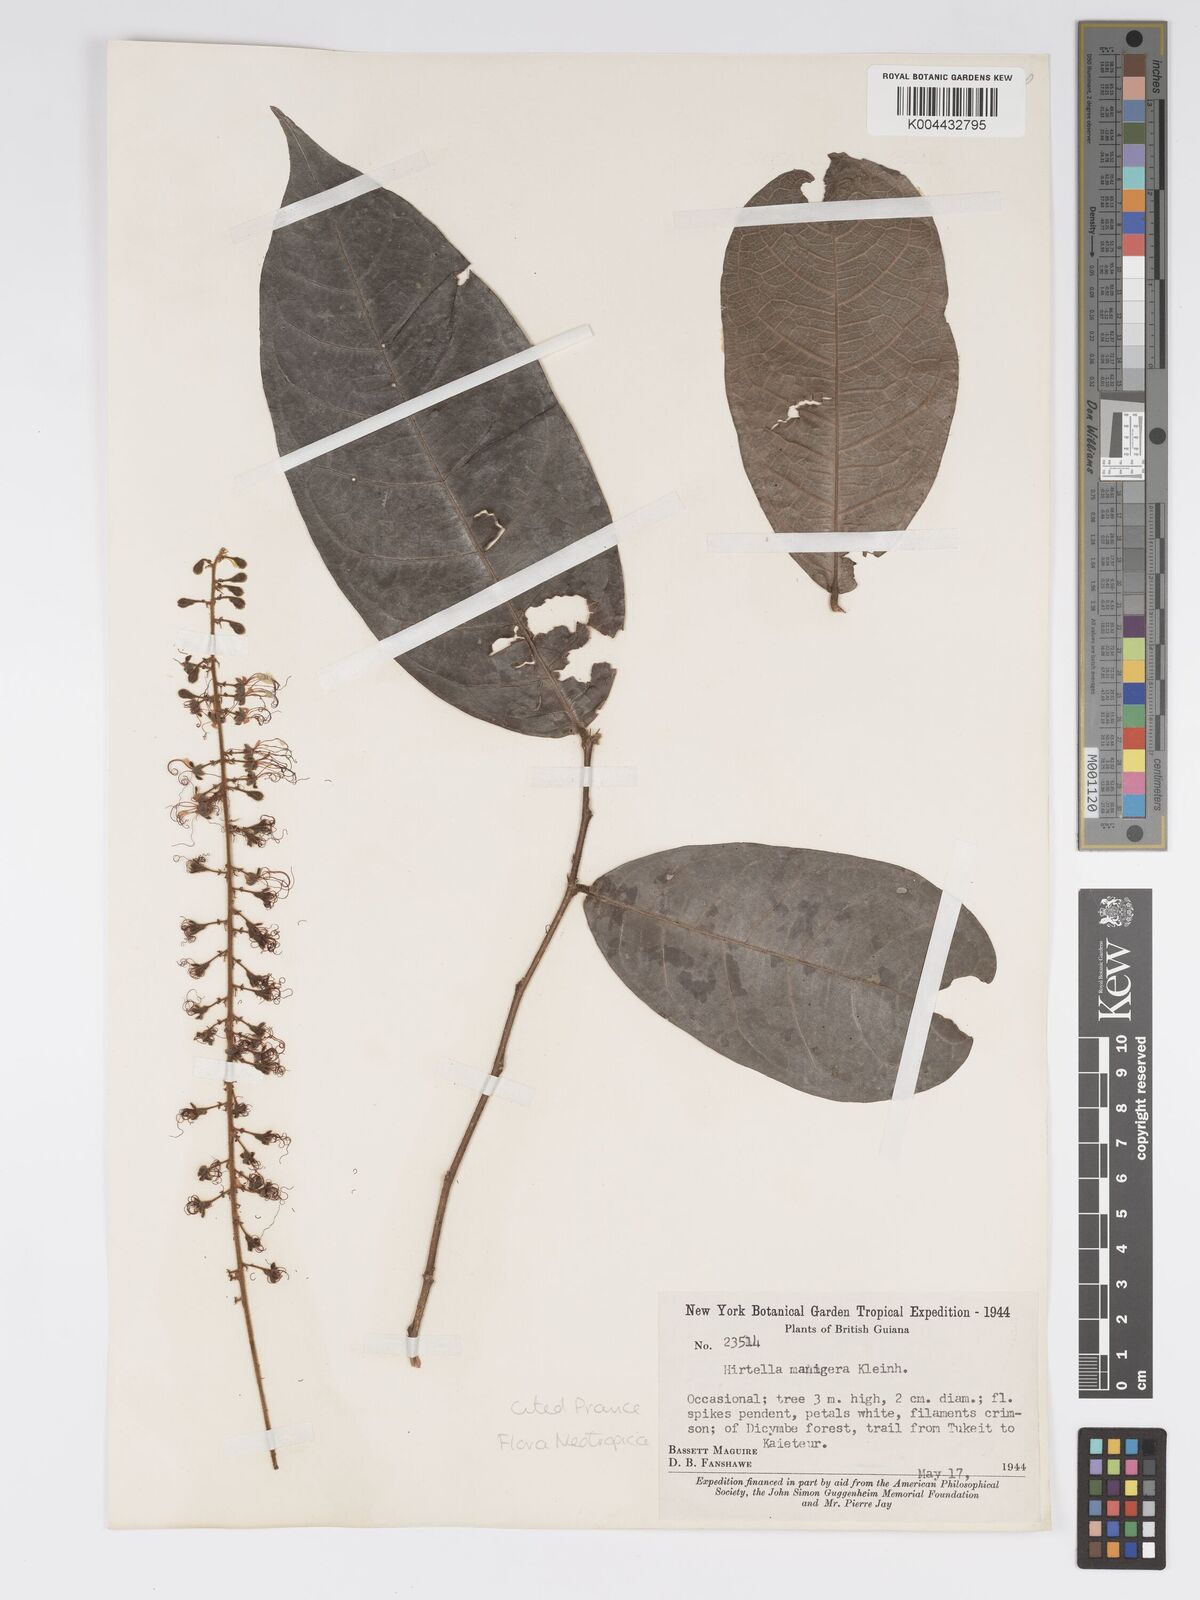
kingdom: Plantae
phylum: Tracheophyta
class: Magnoliopsida
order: Malpighiales
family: Chrysobalanaceae
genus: Hirtella
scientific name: Hirtella silicea
